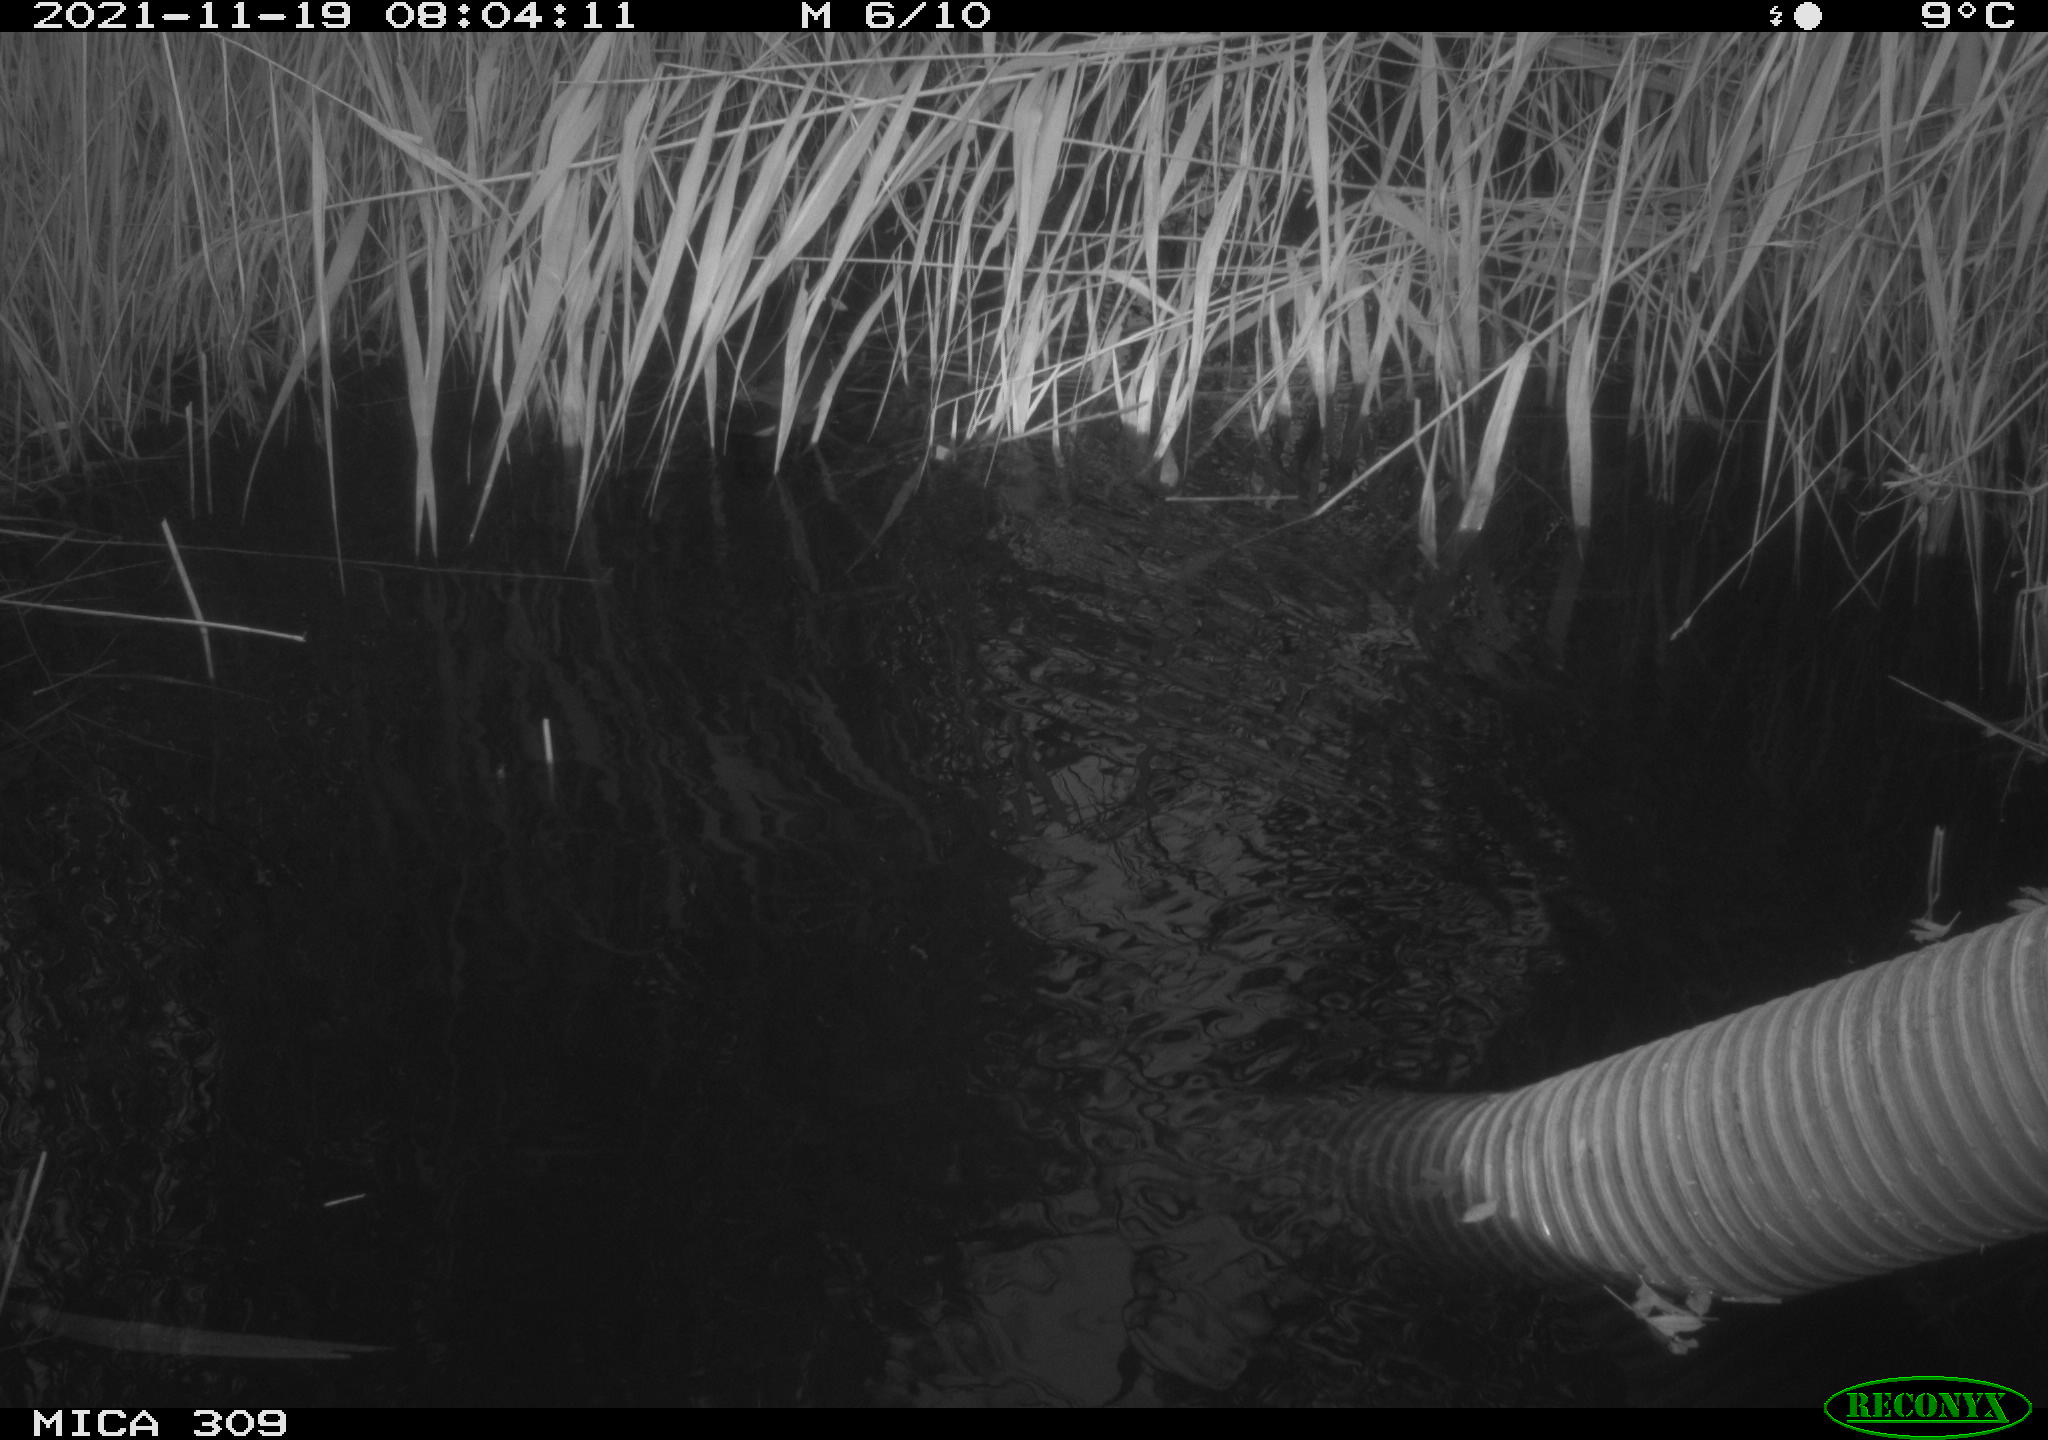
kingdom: Animalia
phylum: Chordata
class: Aves
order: Gruiformes
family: Rallidae
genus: Gallinula
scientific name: Gallinula chloropus
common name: Common moorhen
